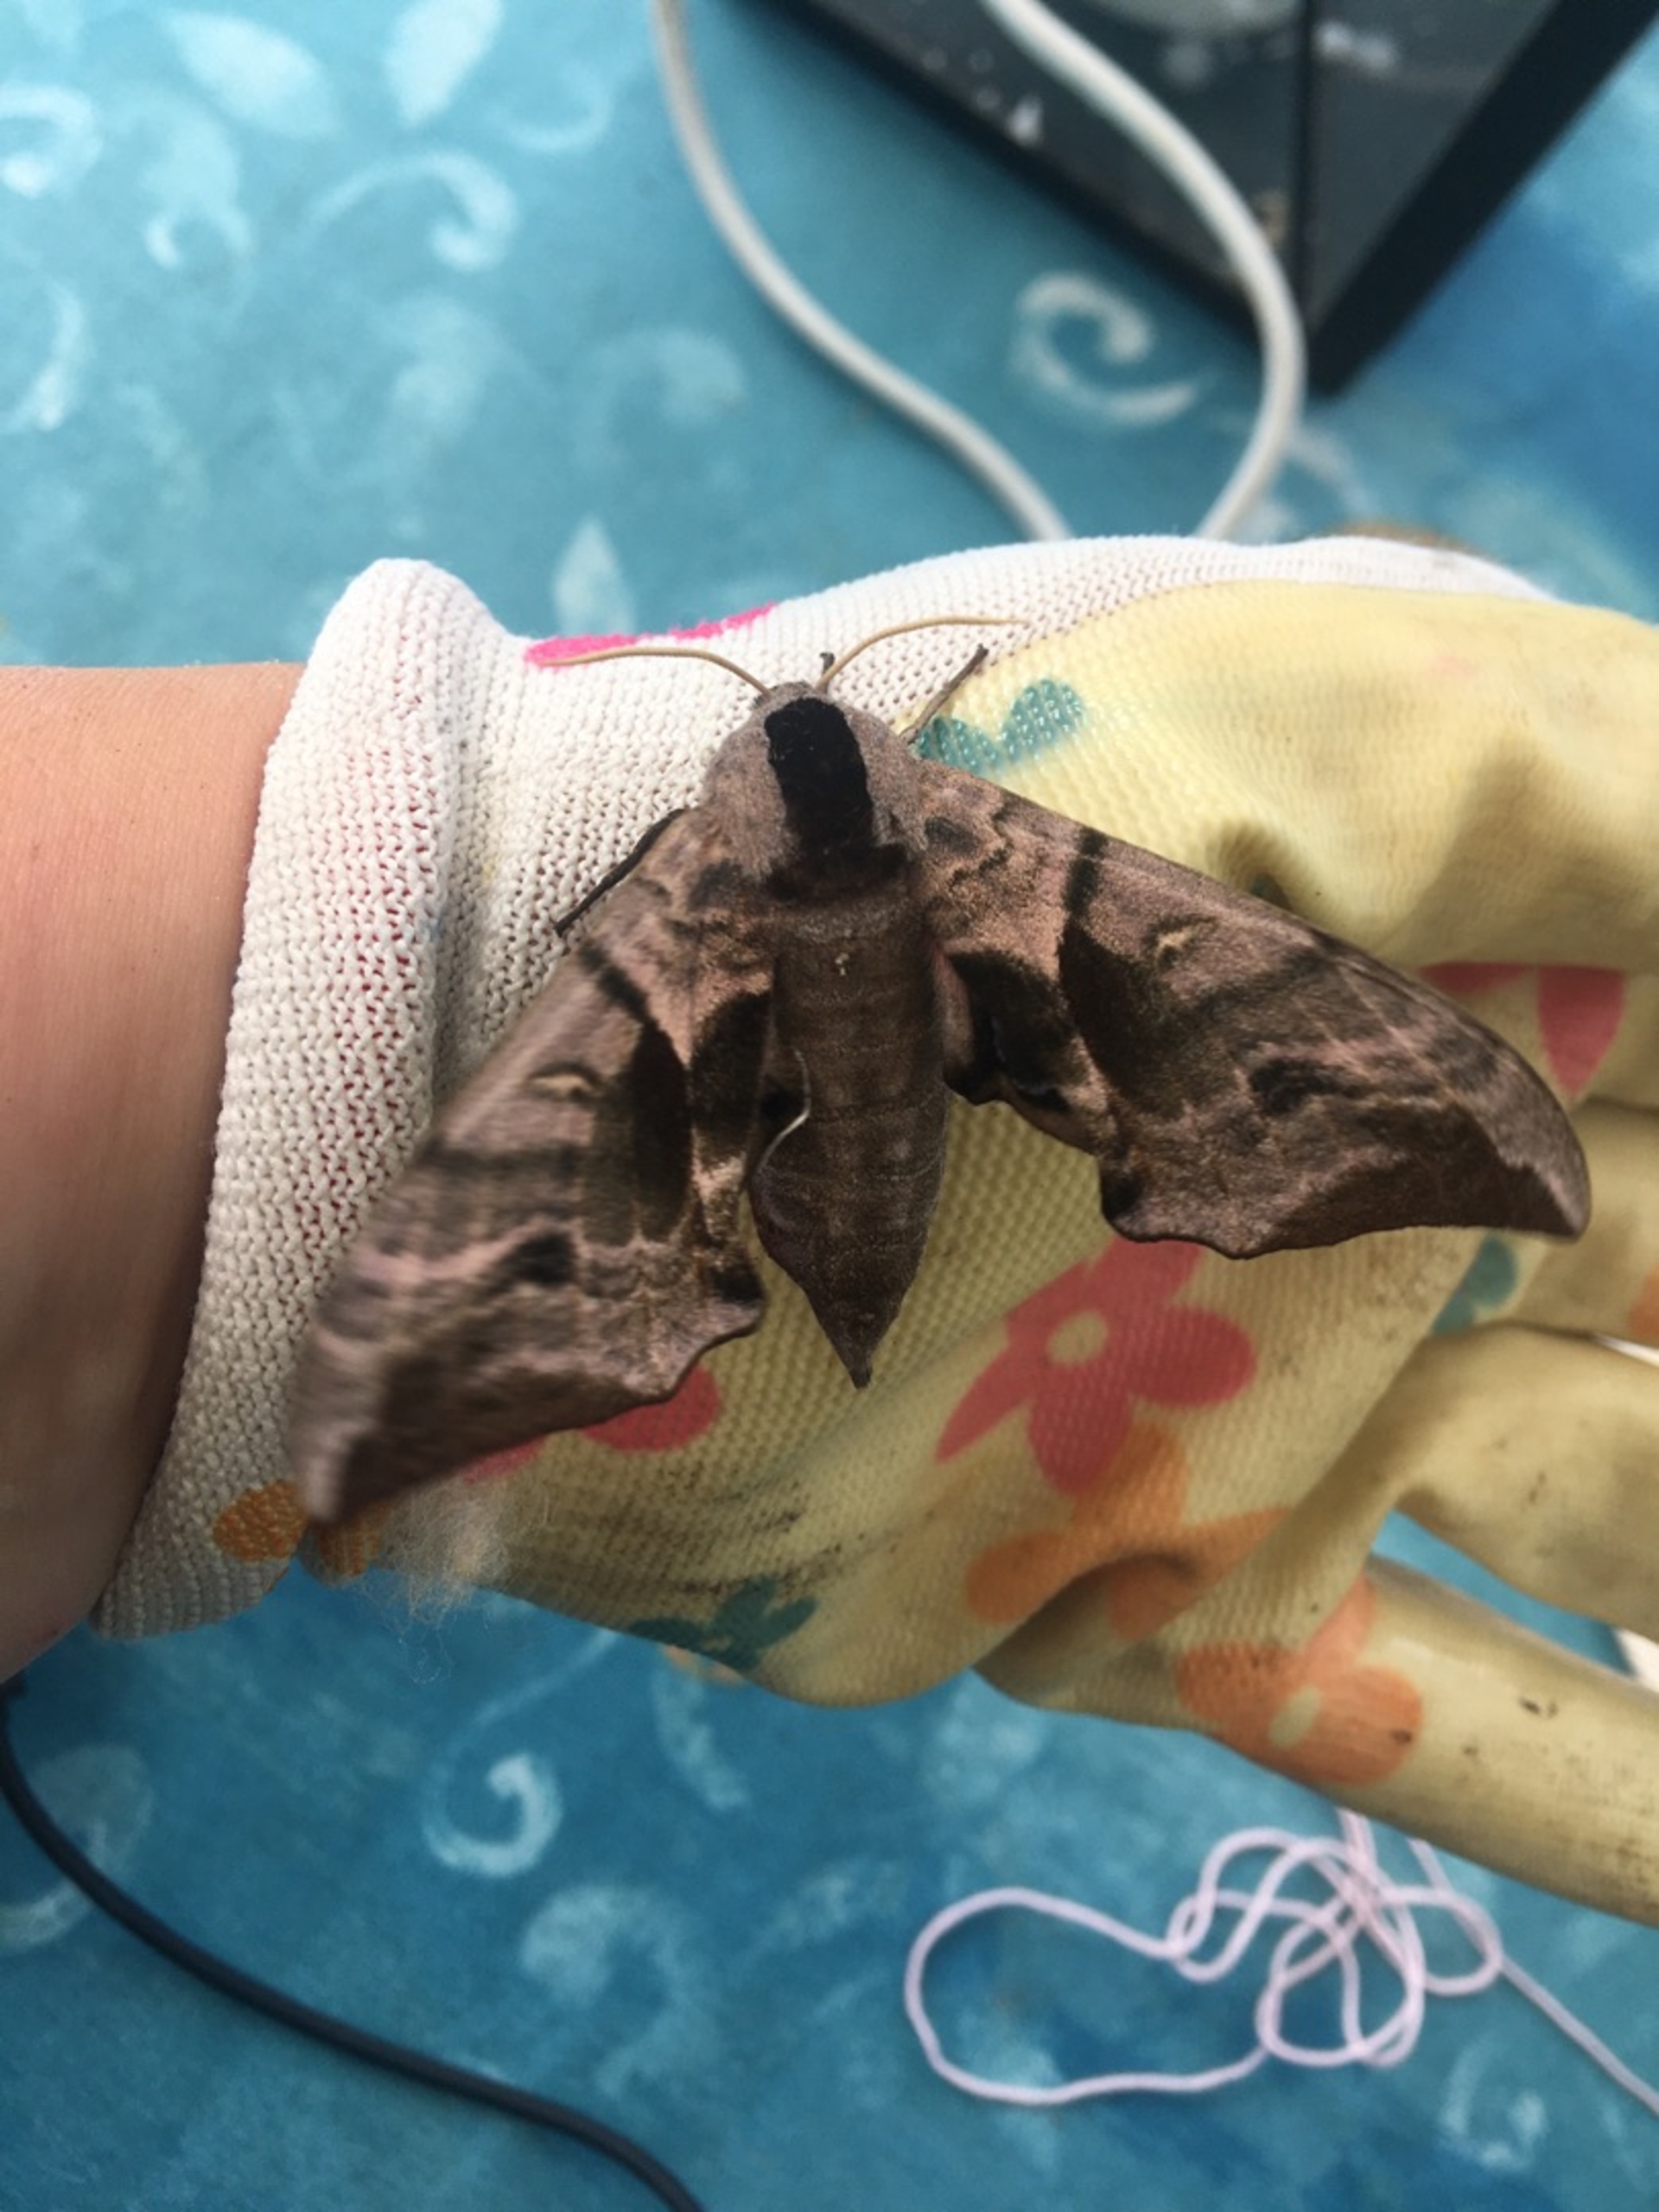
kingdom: Animalia
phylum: Arthropoda
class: Insecta
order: Lepidoptera
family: Sphingidae
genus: Smerinthus
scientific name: Smerinthus ocellata
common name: Aftenpåfugleøje
